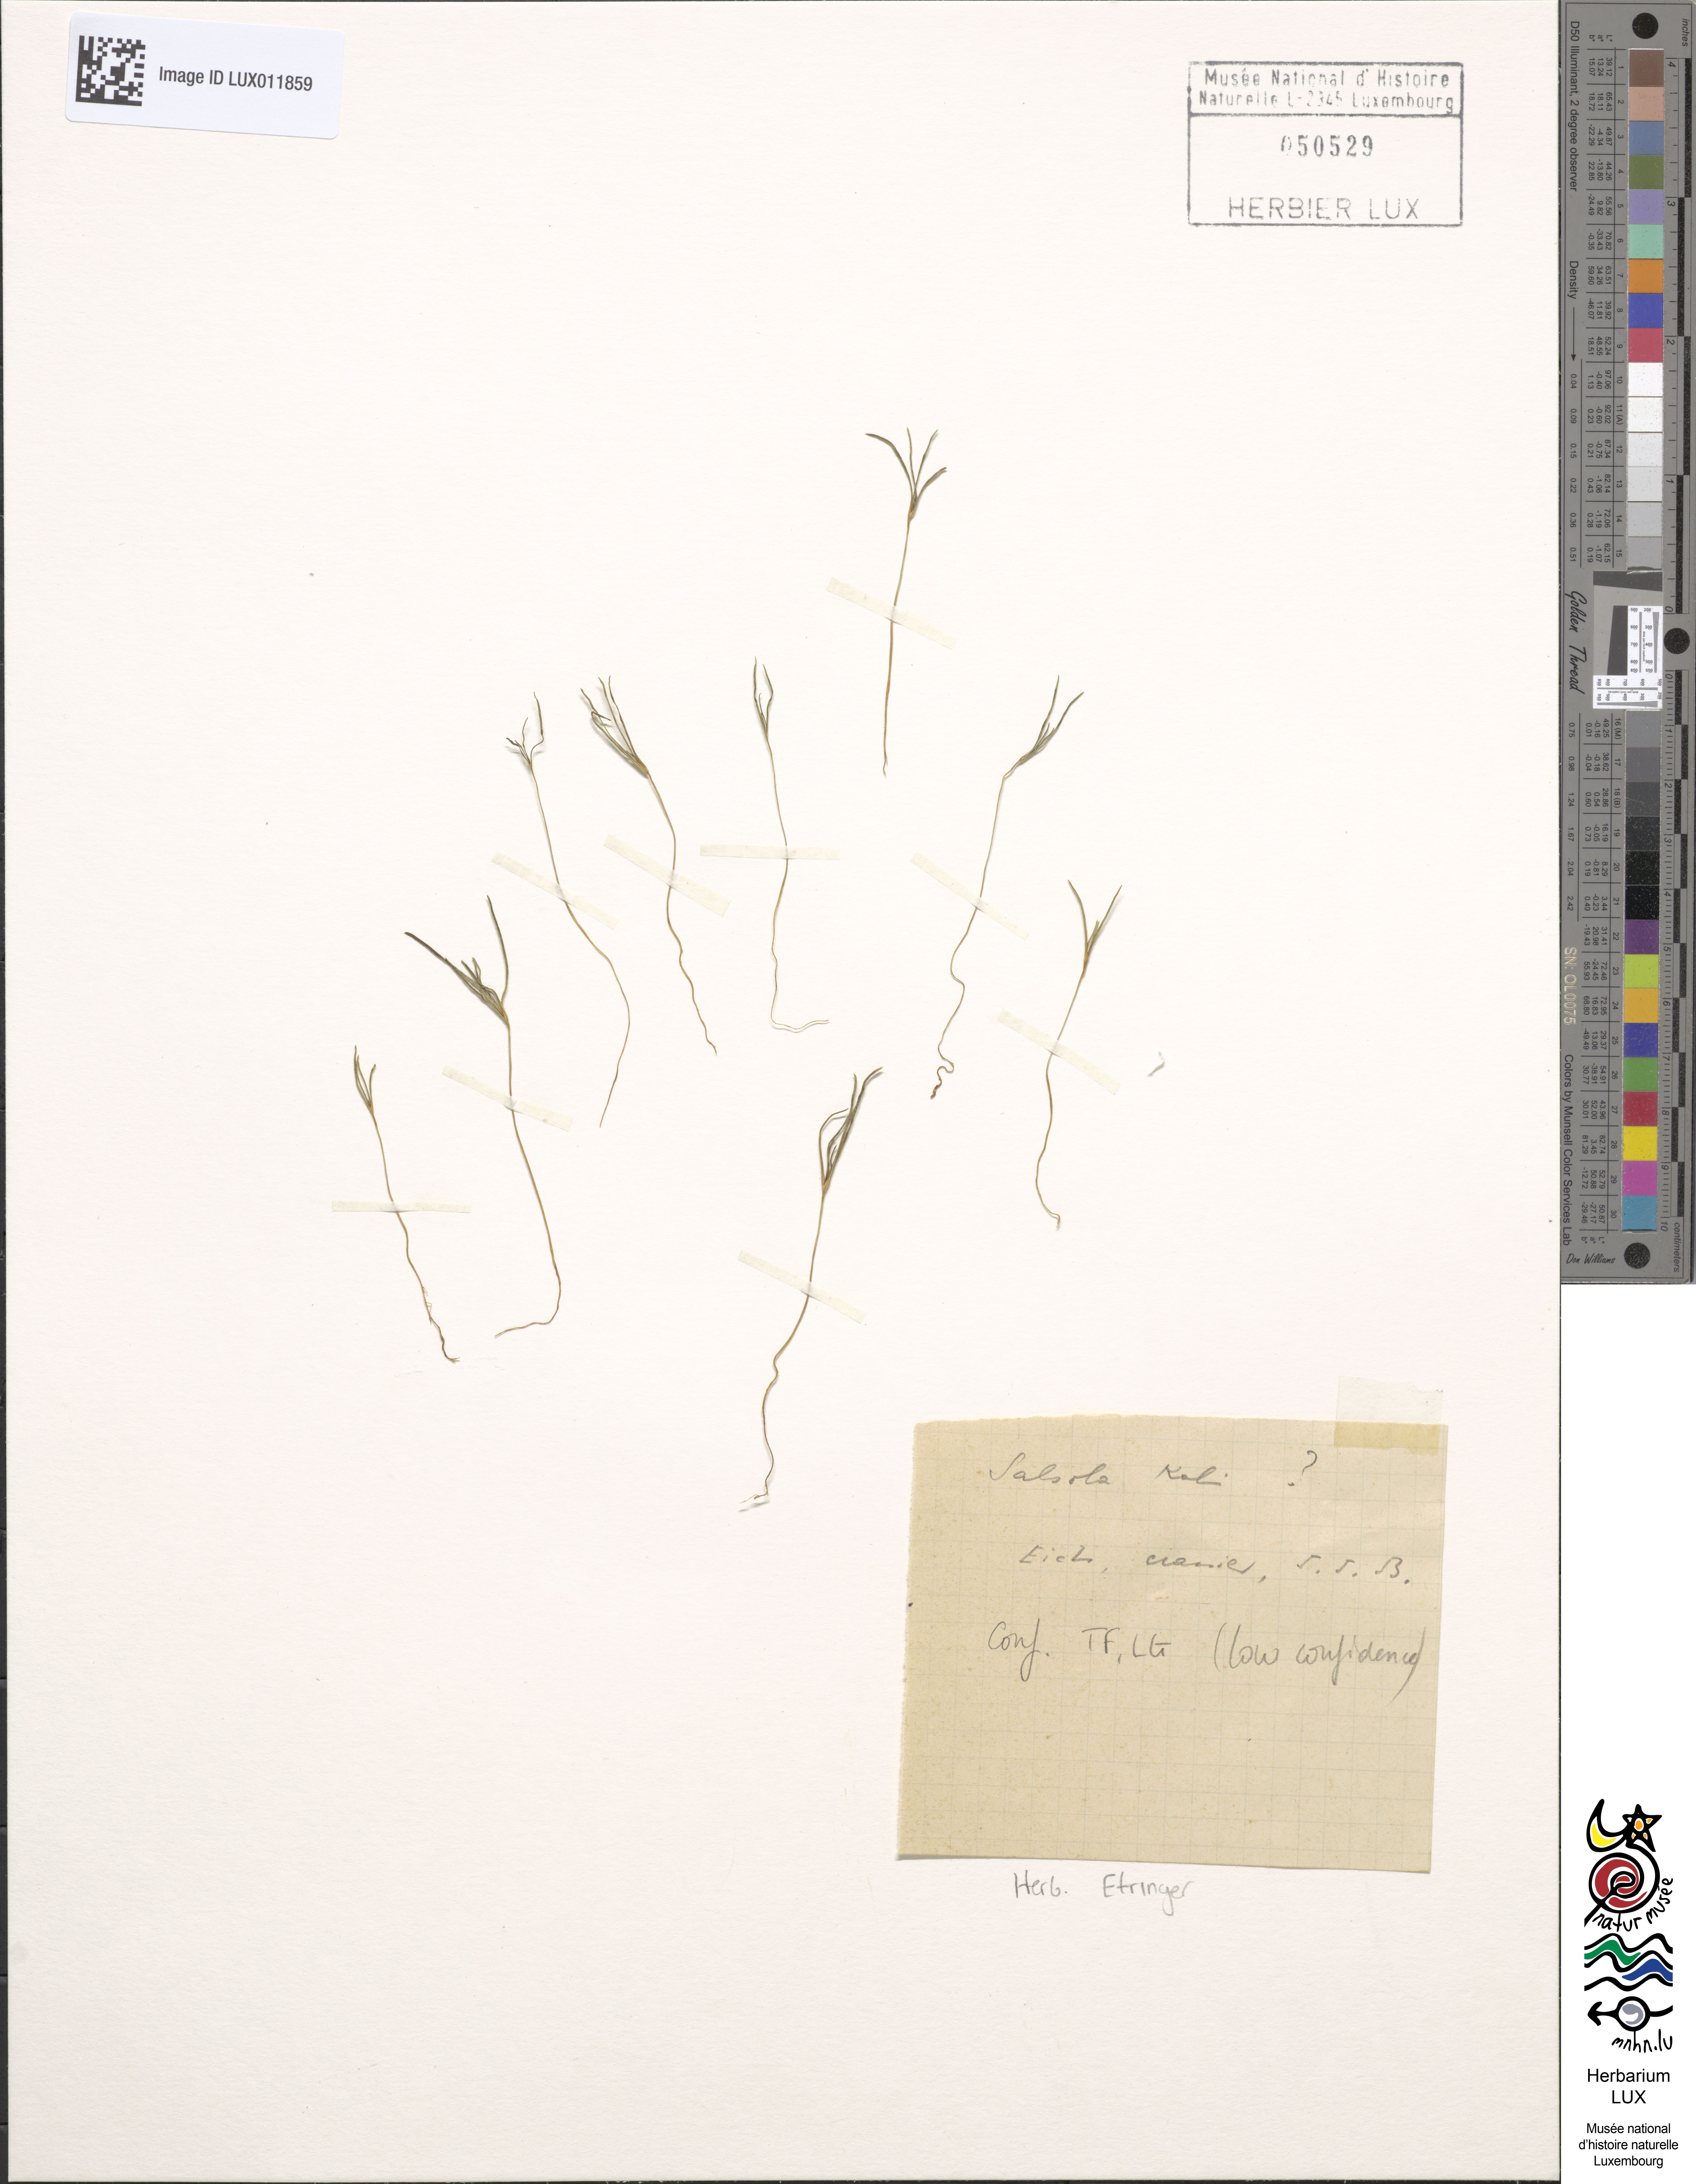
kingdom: Plantae
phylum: Tracheophyta
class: Magnoliopsida
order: Caryophyllales
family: Amaranthaceae
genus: Salsola
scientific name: Salsola kali
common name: Saltwort
